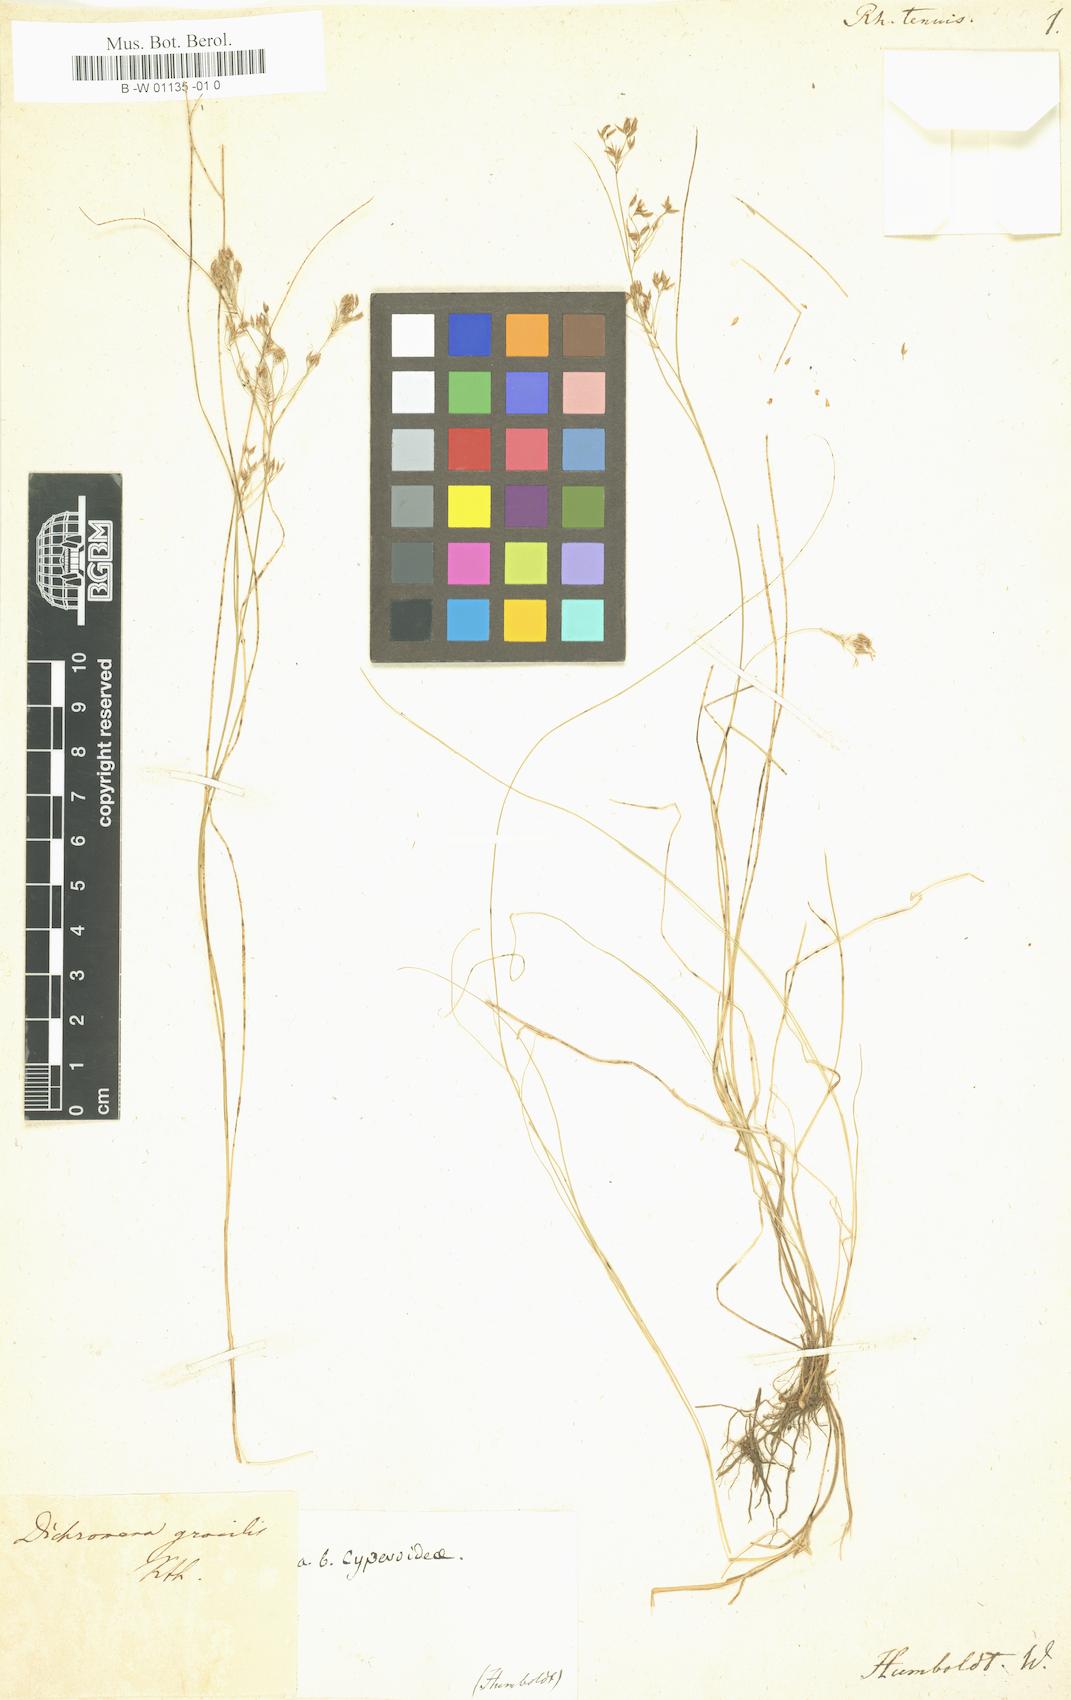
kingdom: Plantae
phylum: Tracheophyta
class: Liliopsida
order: Poales
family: Cyperaceae
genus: Rhynchospora
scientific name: Rhynchospora tenuis
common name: Quill beaksedge
